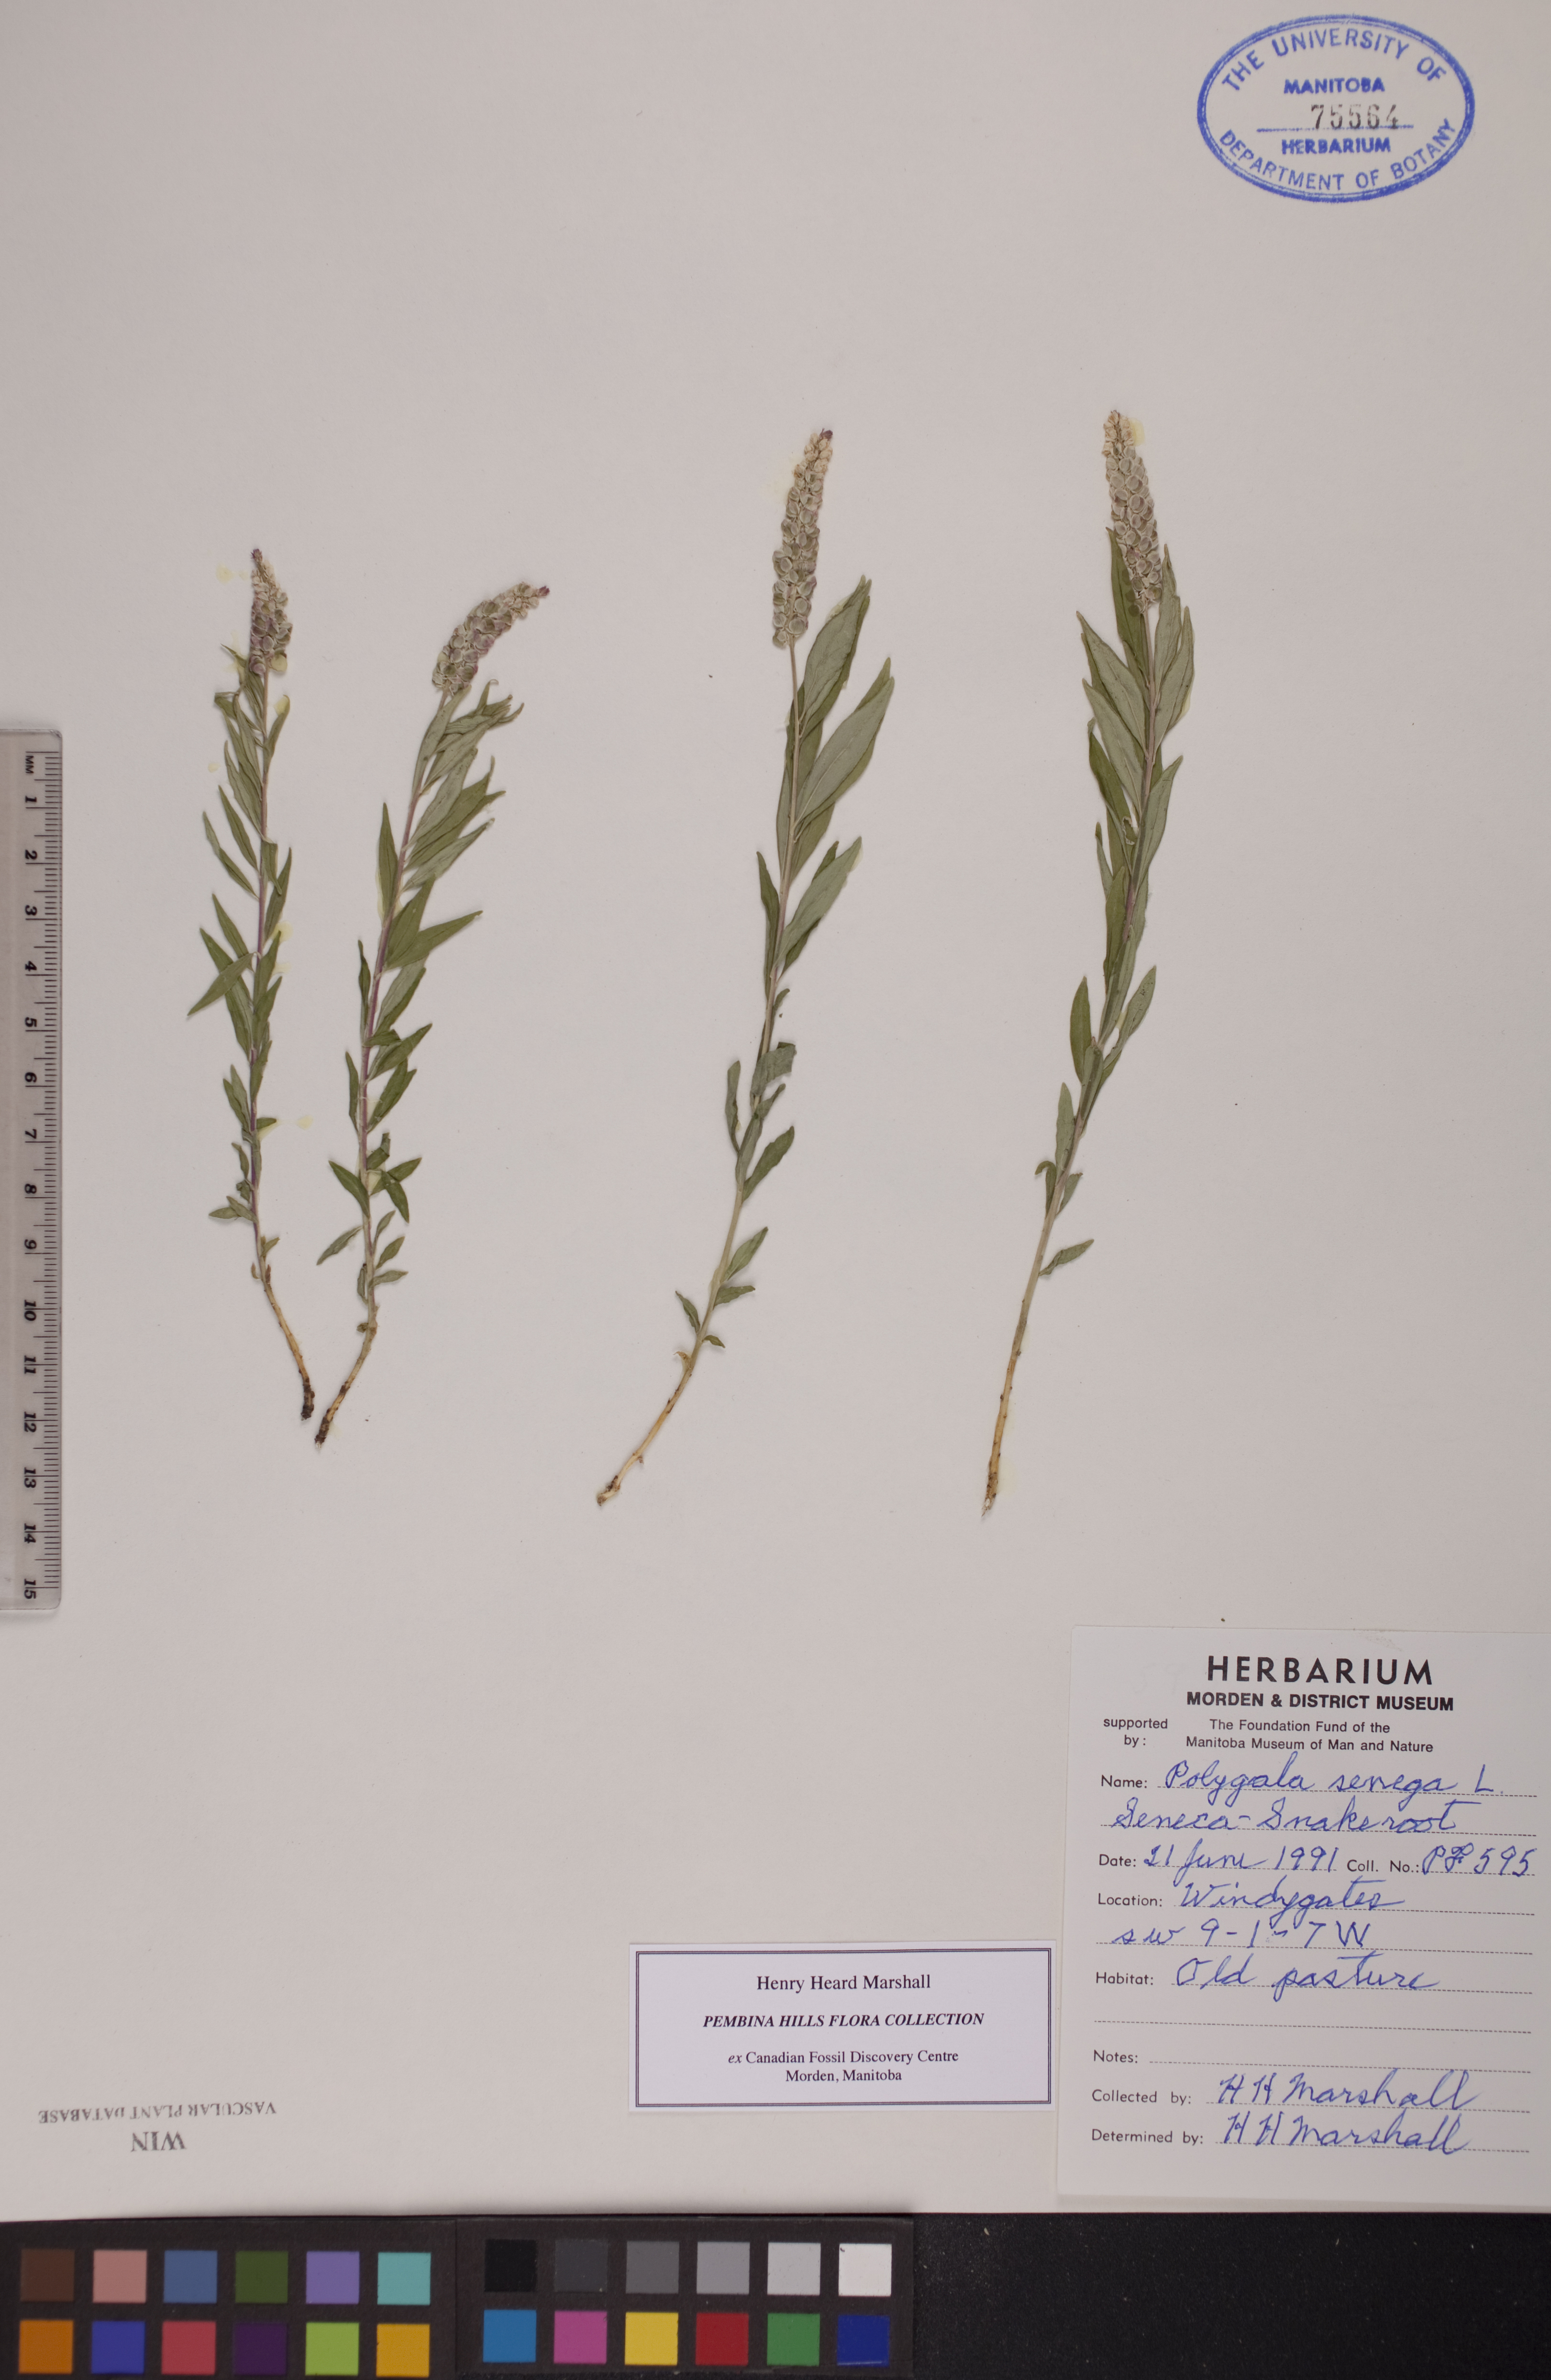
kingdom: Plantae
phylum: Tracheophyta
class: Magnoliopsida
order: Fabales
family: Polygalaceae
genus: Polygala
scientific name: Polygala senega
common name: Seneca snakeroot
